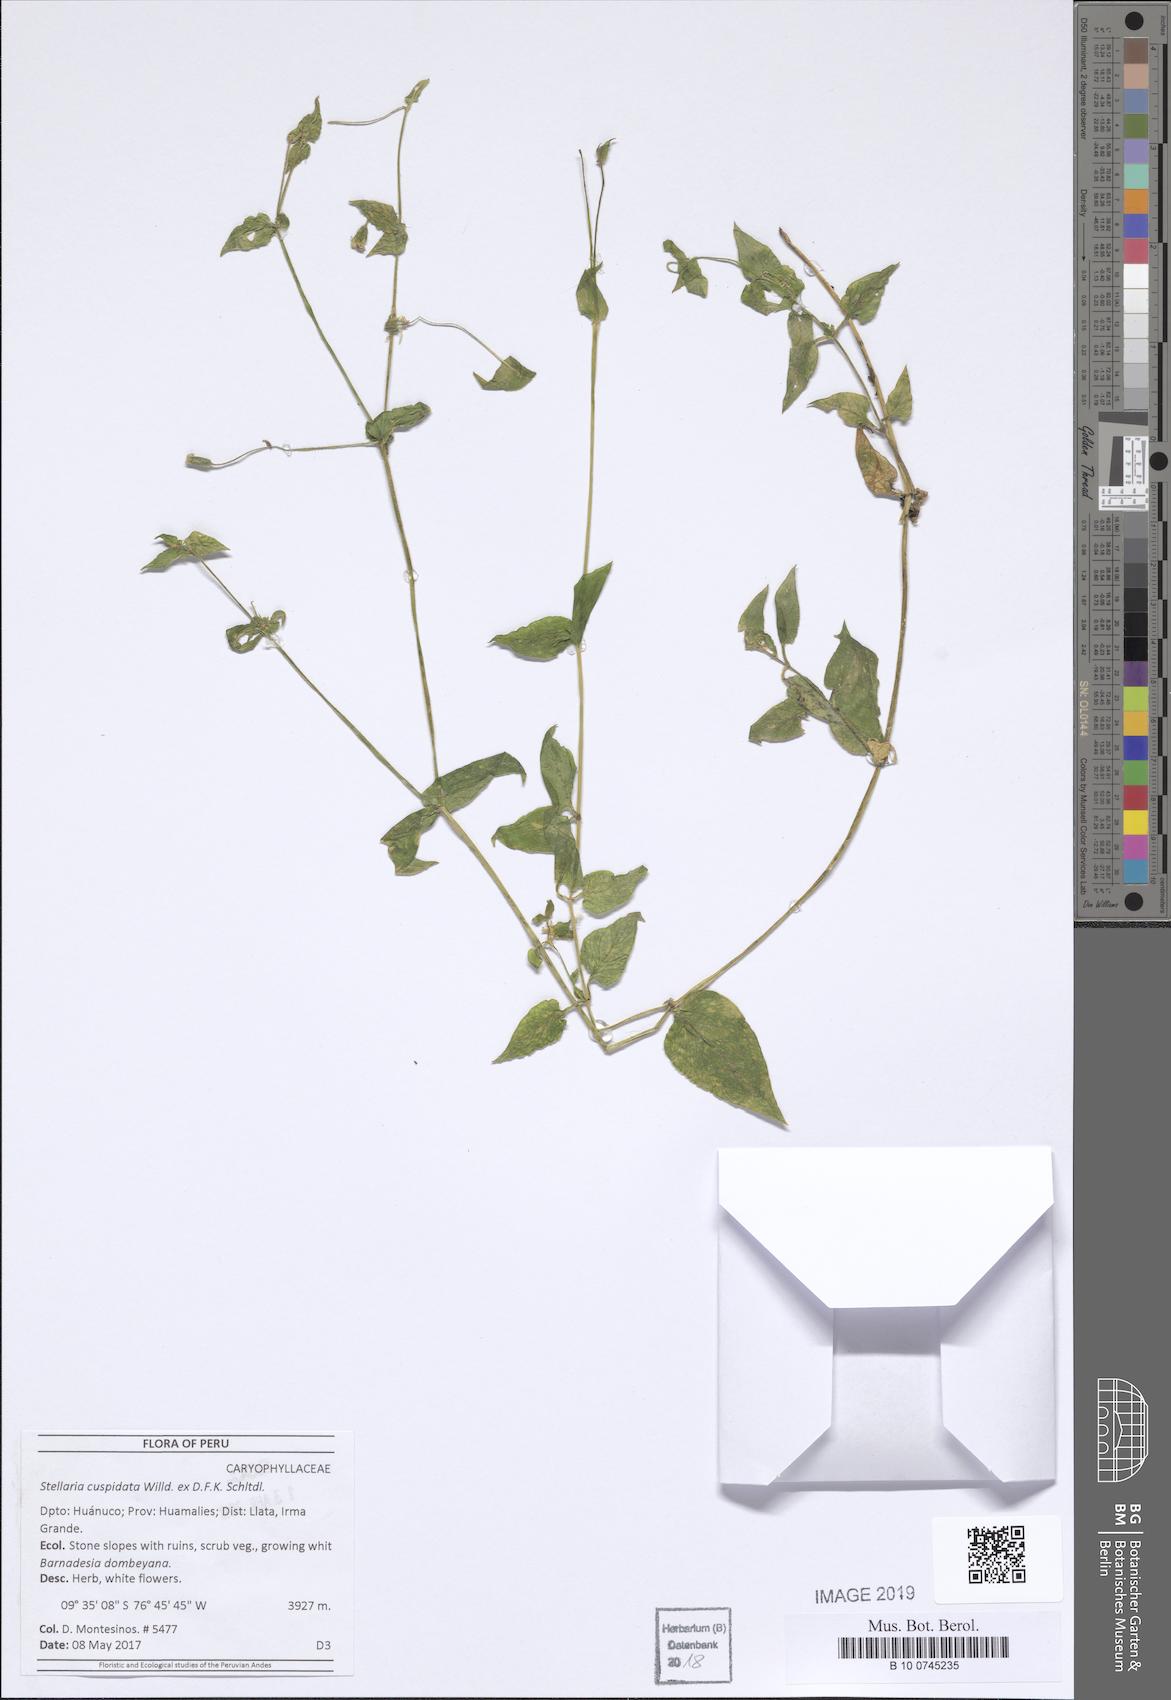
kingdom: Plantae
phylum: Tracheophyta
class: Magnoliopsida
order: Caryophyllales
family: Caryophyllaceae
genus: Stellaria
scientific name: Stellaria cuspidata
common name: Mexican chickweed
